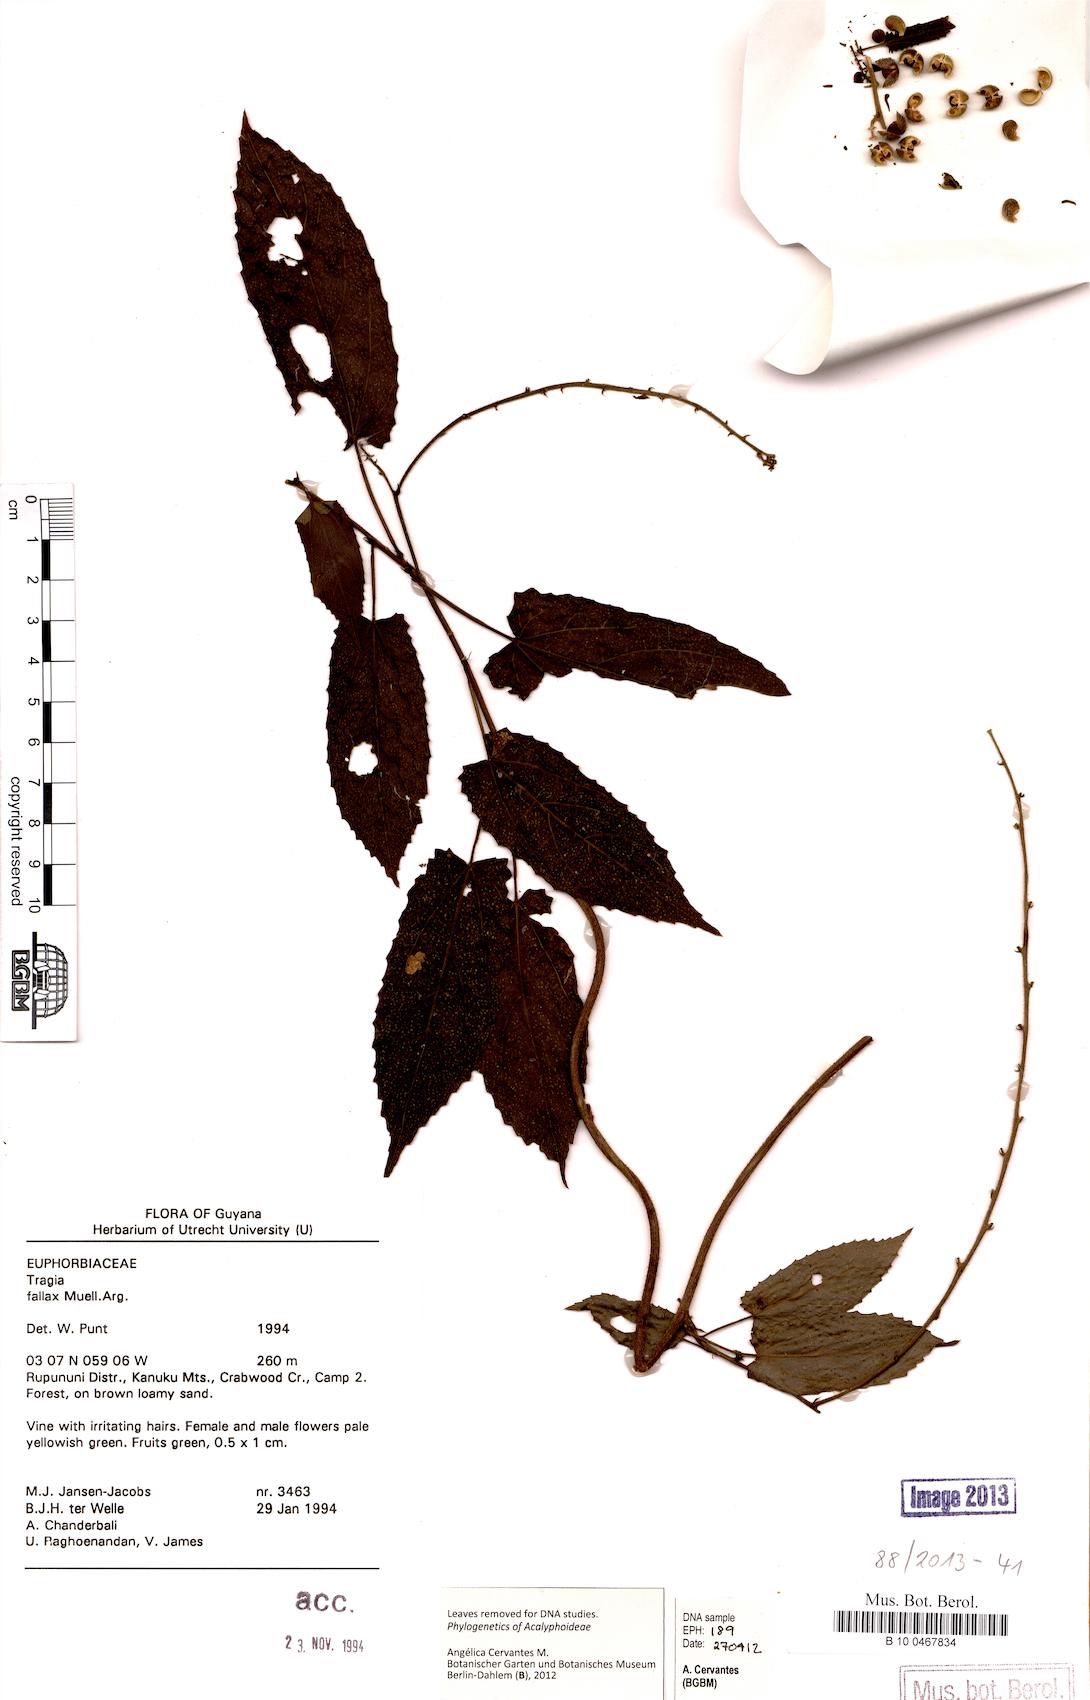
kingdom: Plantae
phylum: Tracheophyta
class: Magnoliopsida
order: Malpighiales
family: Euphorbiaceae
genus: Bia
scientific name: Bia fallax
